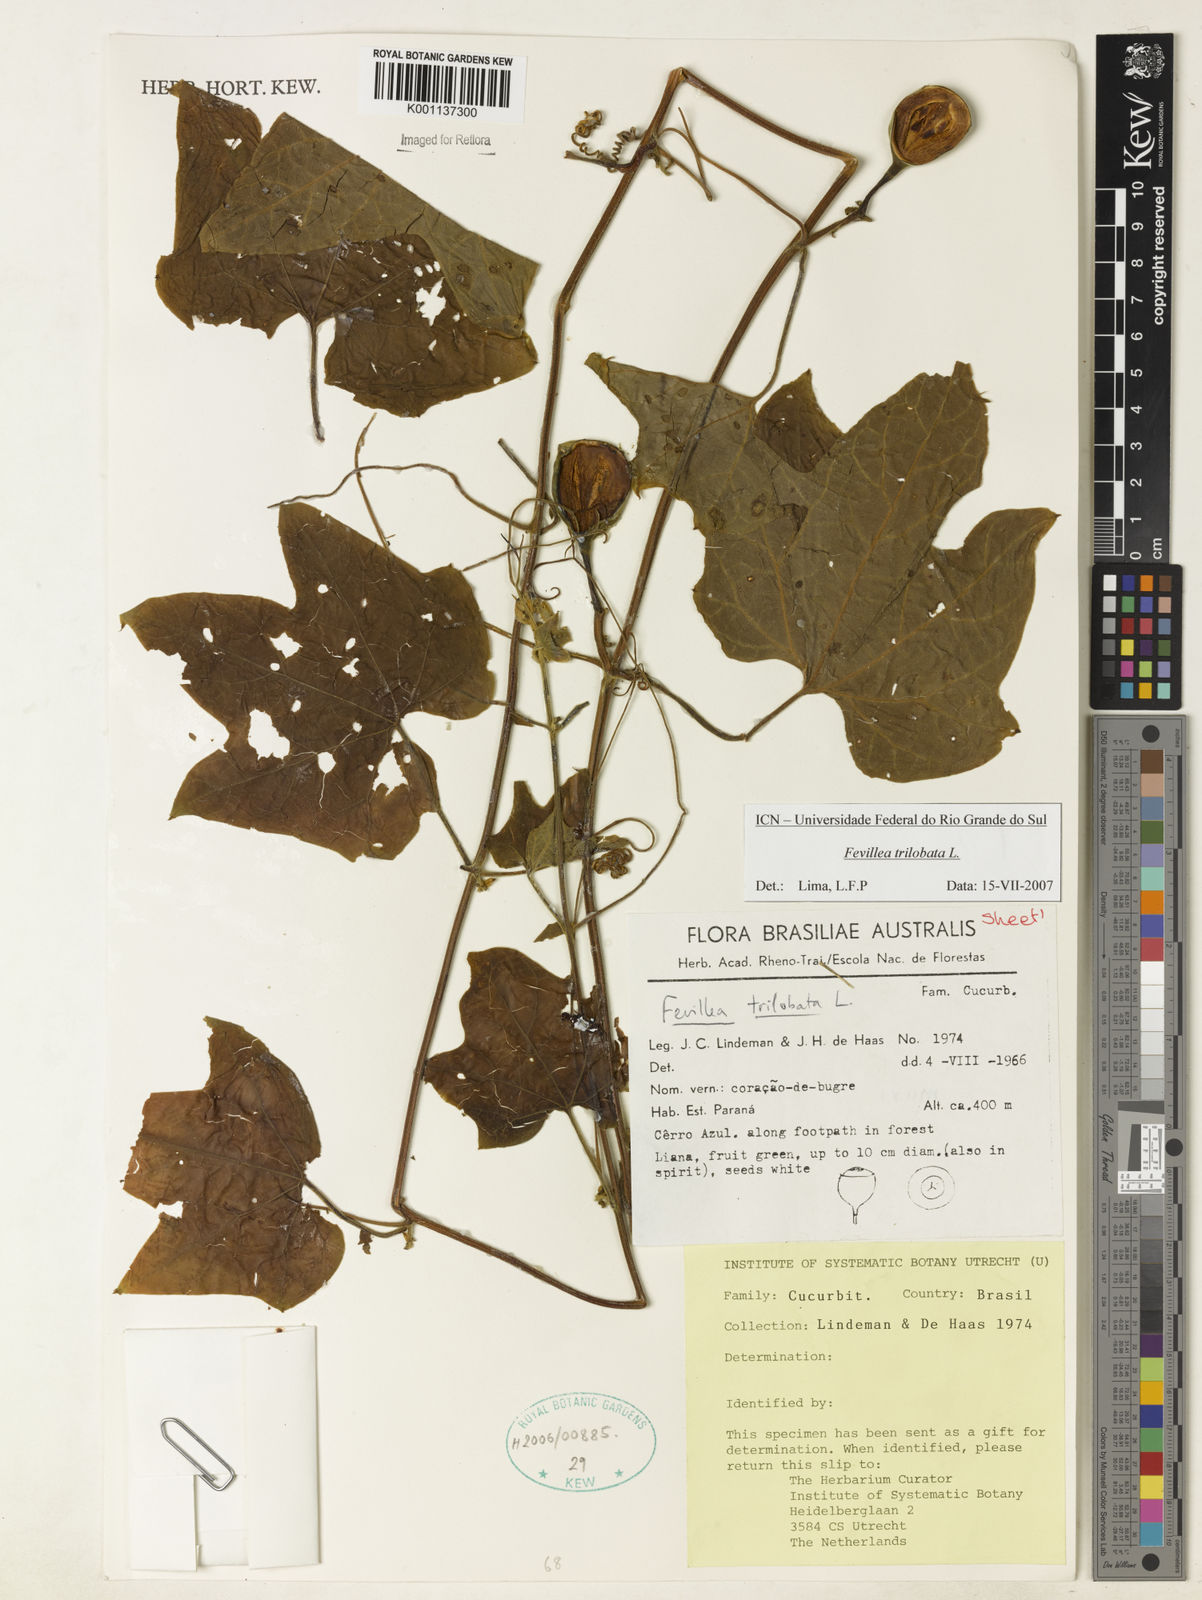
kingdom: Plantae
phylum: Tracheophyta
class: Magnoliopsida
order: Cucurbitales
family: Cucurbitaceae
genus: Fevillea
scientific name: Fevillea trilobata
